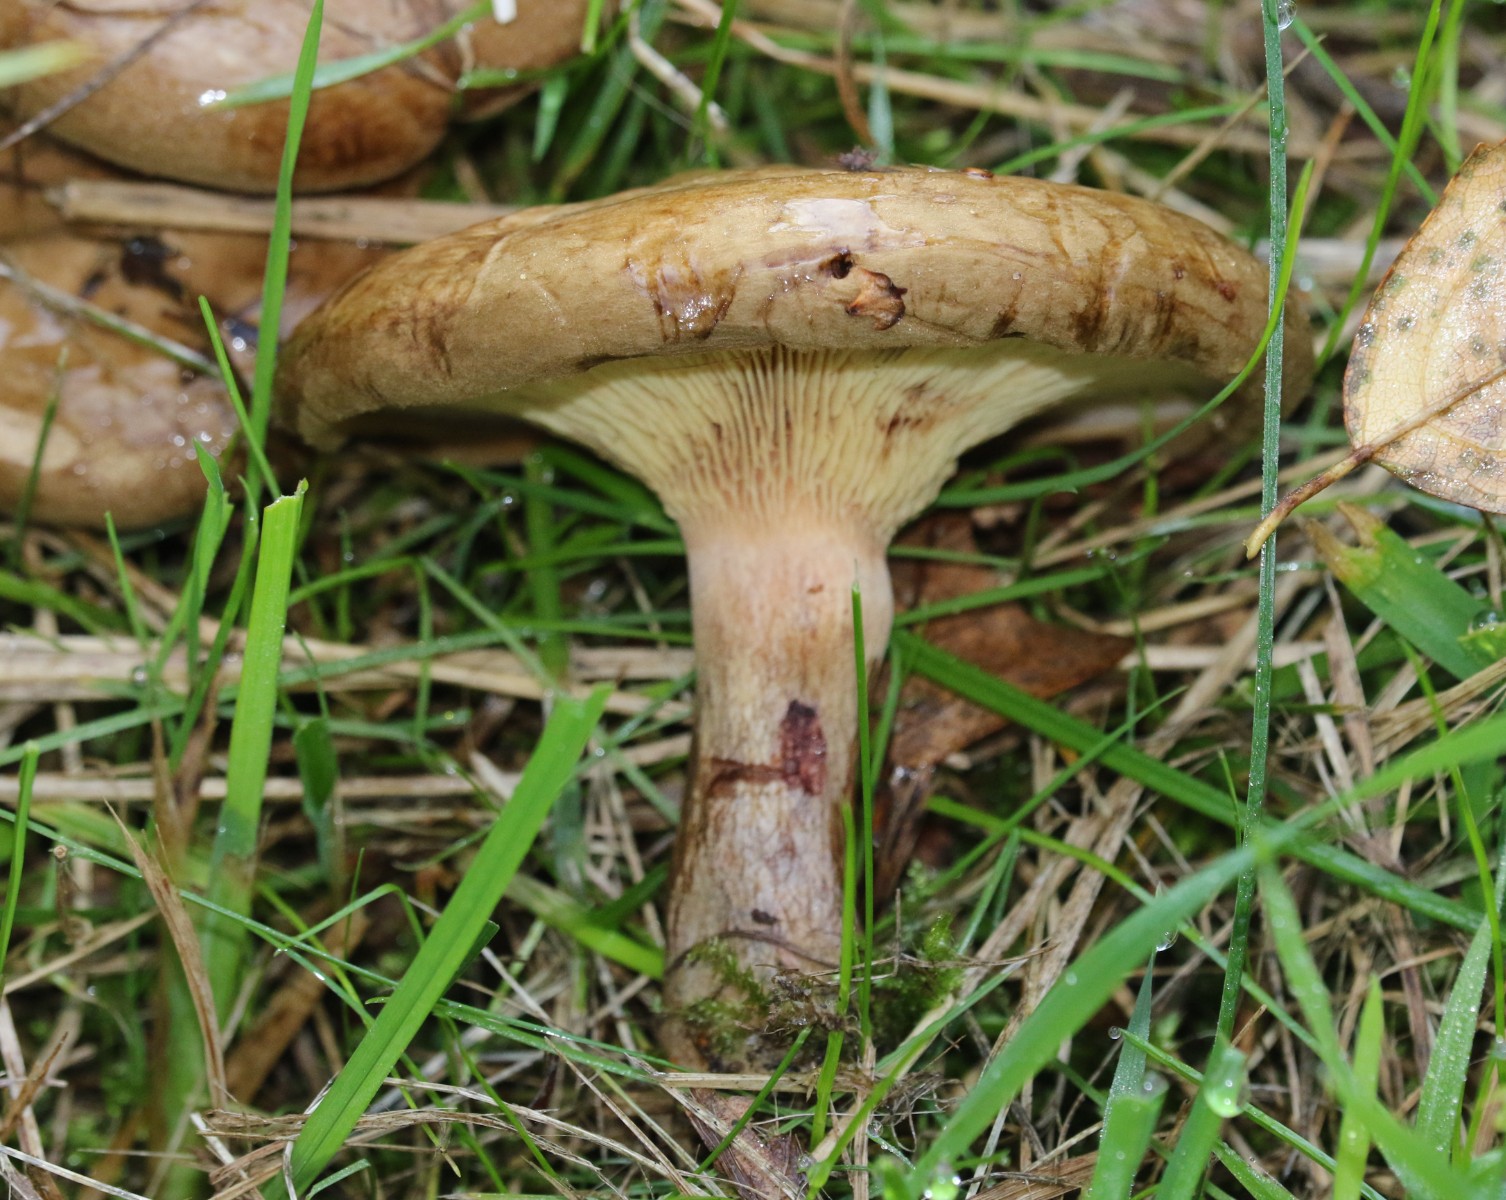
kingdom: Fungi
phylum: Basidiomycota
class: Agaricomycetes
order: Boletales
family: Paxillaceae
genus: Paxillus
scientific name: Paxillus
